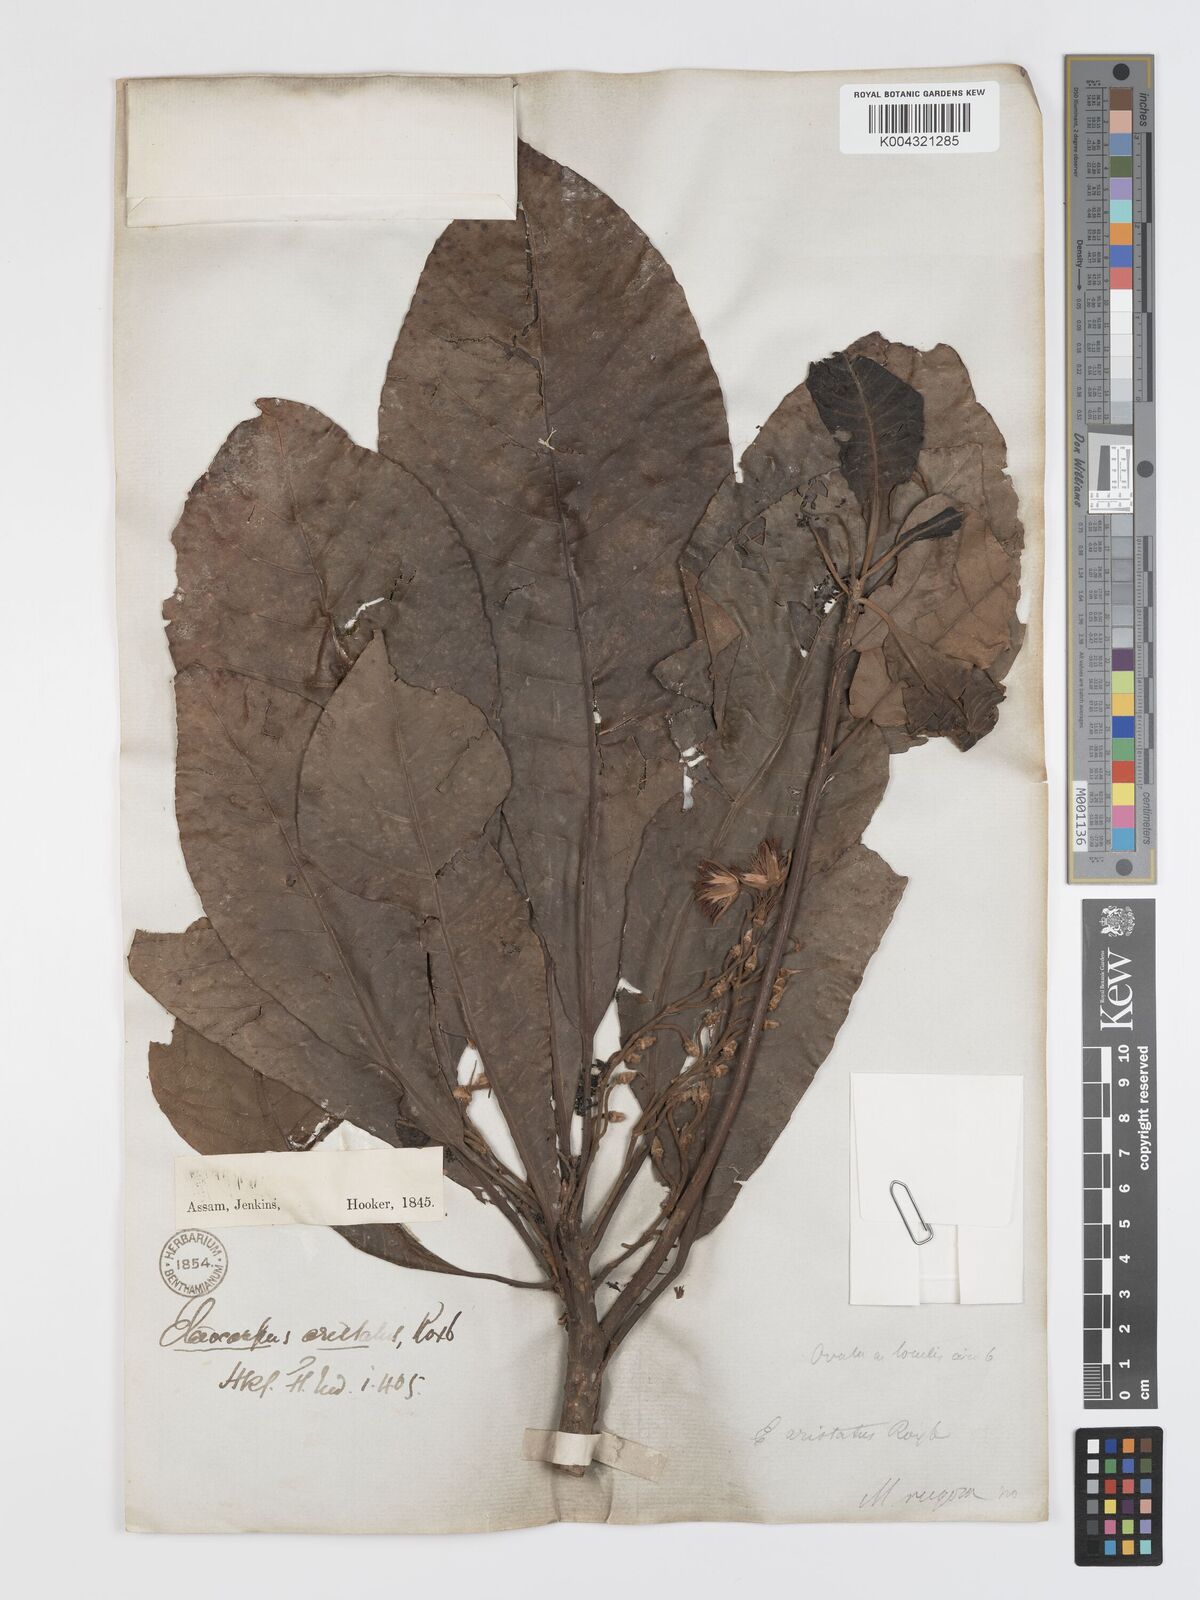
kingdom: Plantae
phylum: Tracheophyta
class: Magnoliopsida
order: Oxalidales
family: Elaeocarpaceae
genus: Elaeocarpus
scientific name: Elaeocarpus aristatus
